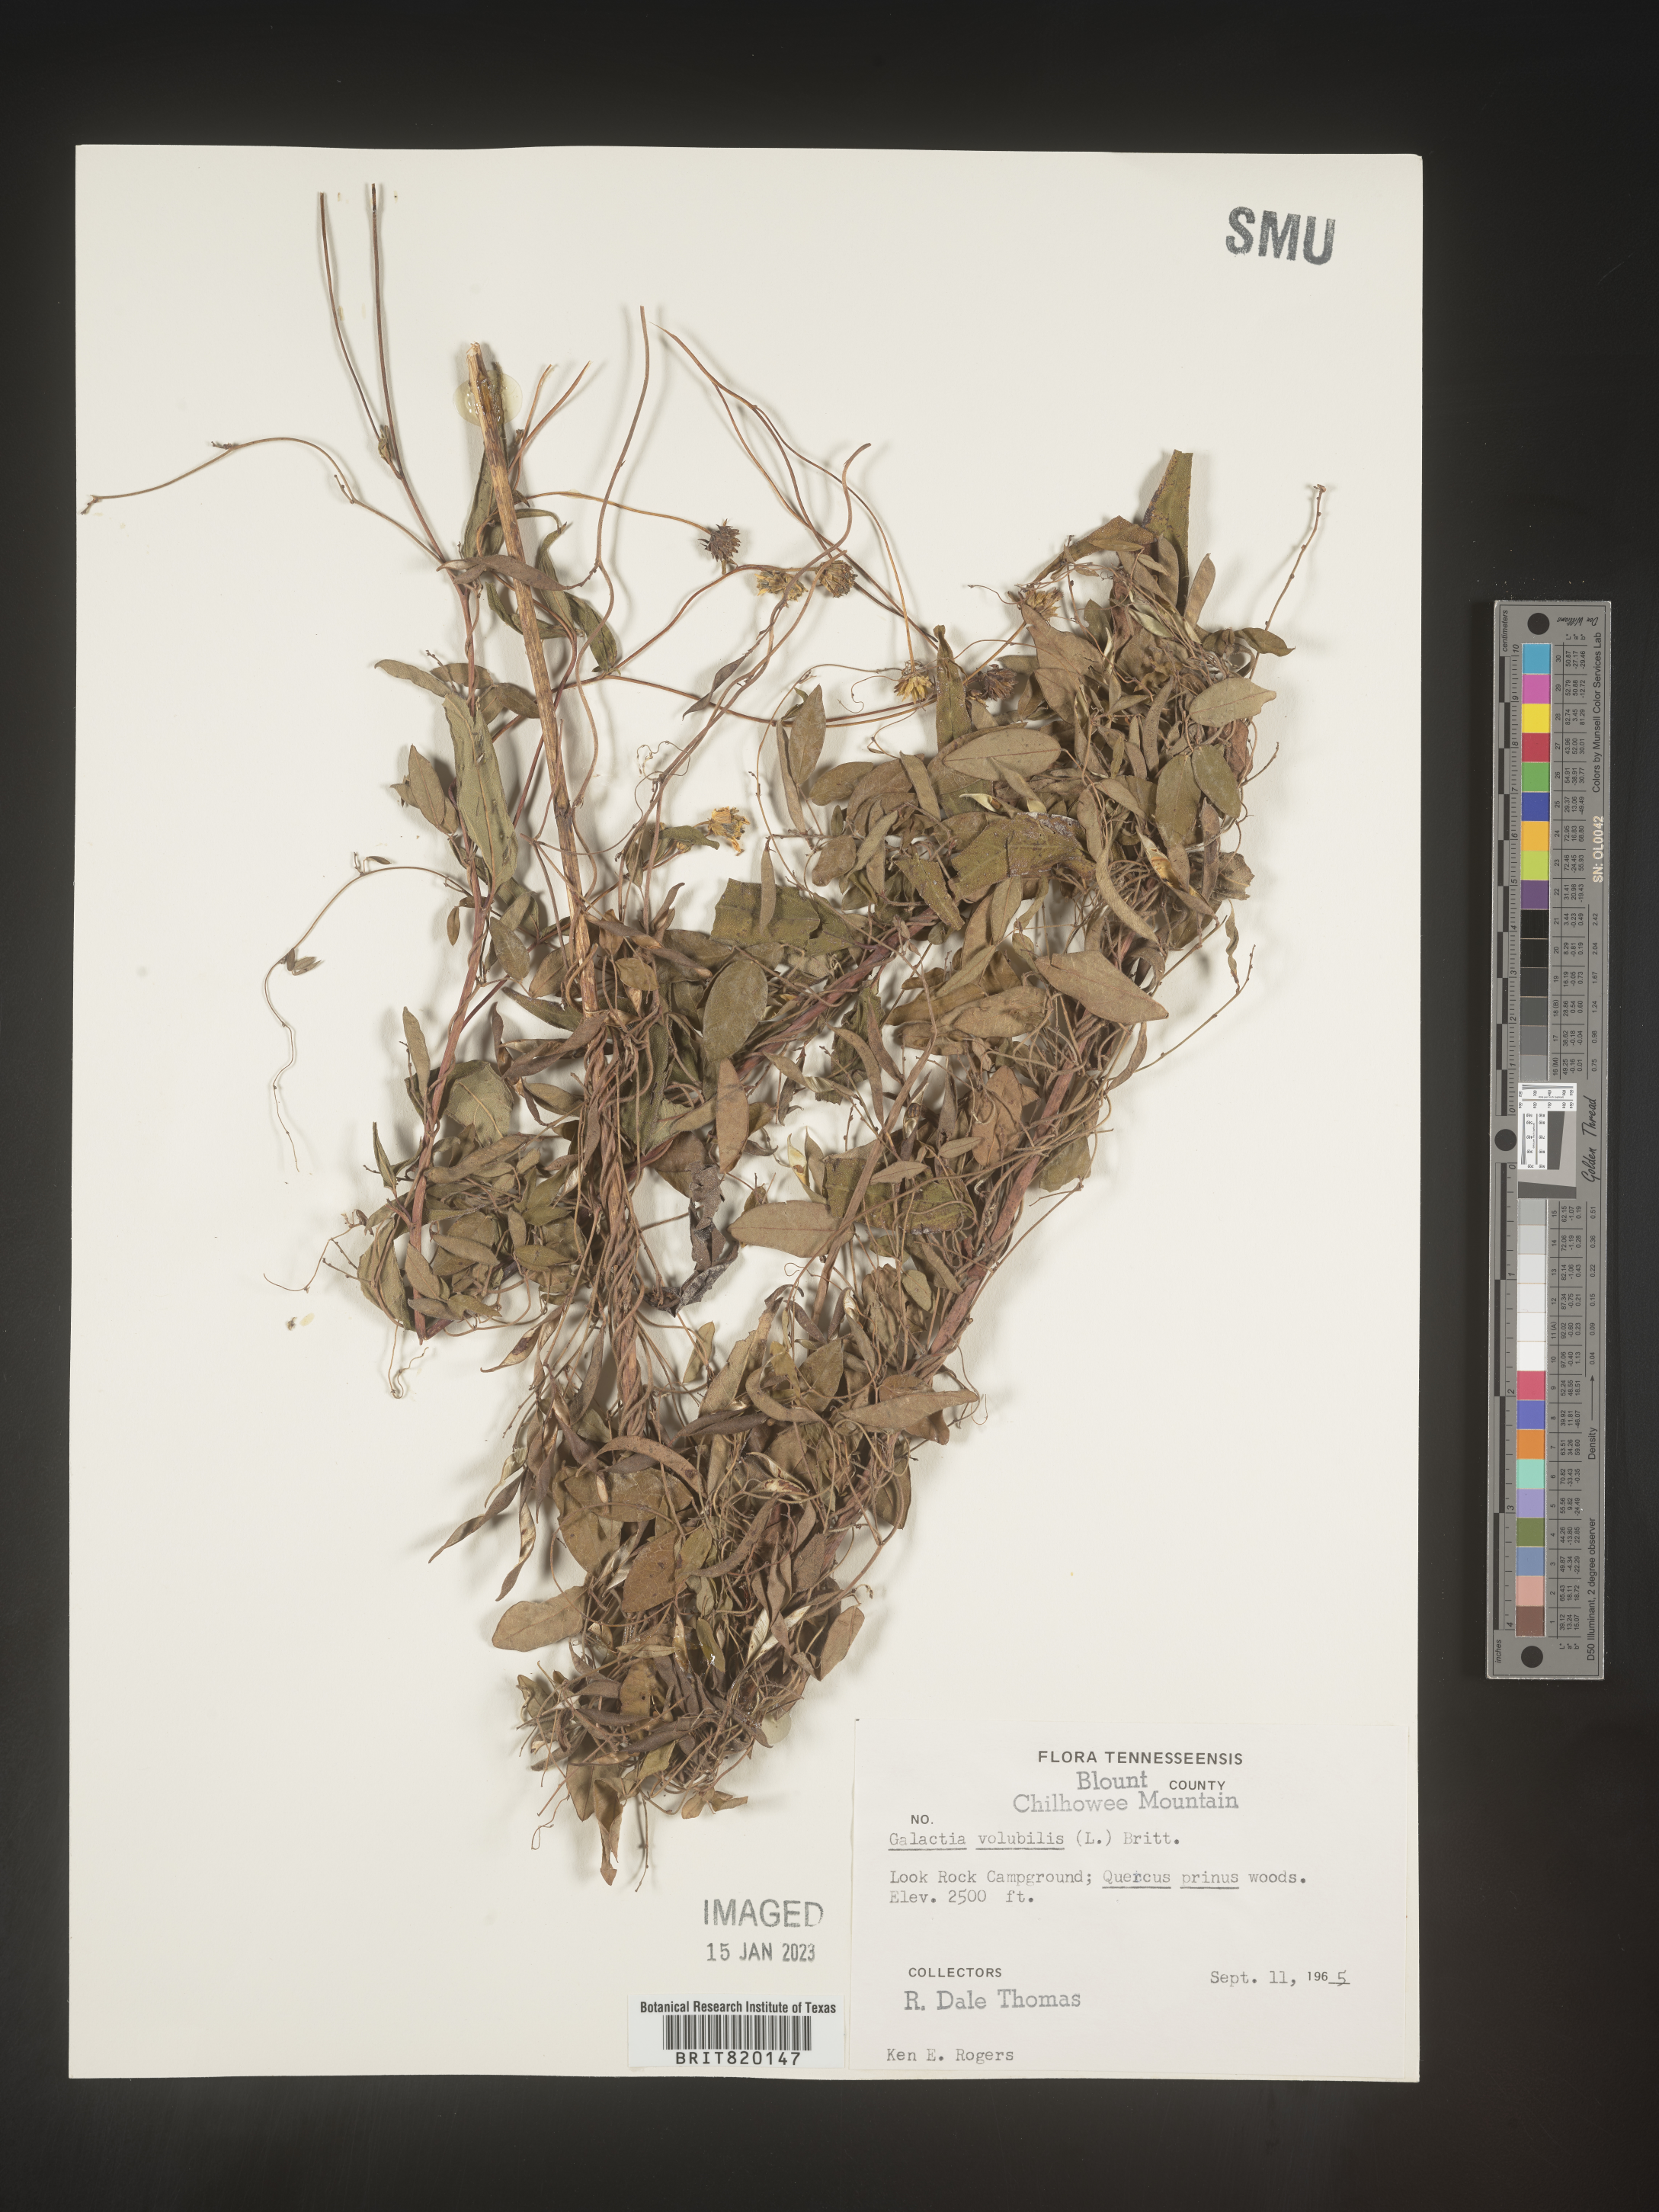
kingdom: Plantae
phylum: Tracheophyta
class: Magnoliopsida
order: Fabales
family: Fabaceae
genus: Galactia
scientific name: Galactia volubilis
